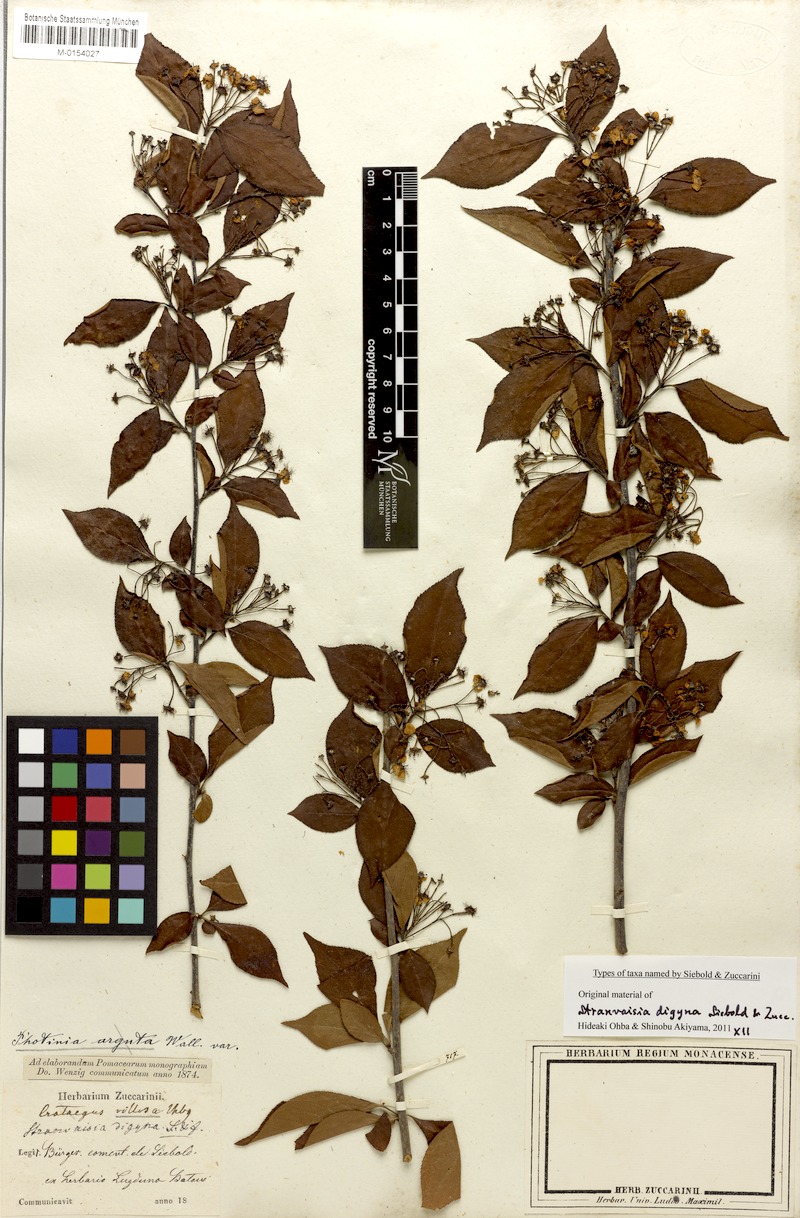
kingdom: Plantae
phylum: Tracheophyta
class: Magnoliopsida
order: Rosales
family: Rosaceae
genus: Pourthiaea
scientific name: Pourthiaea villosa
